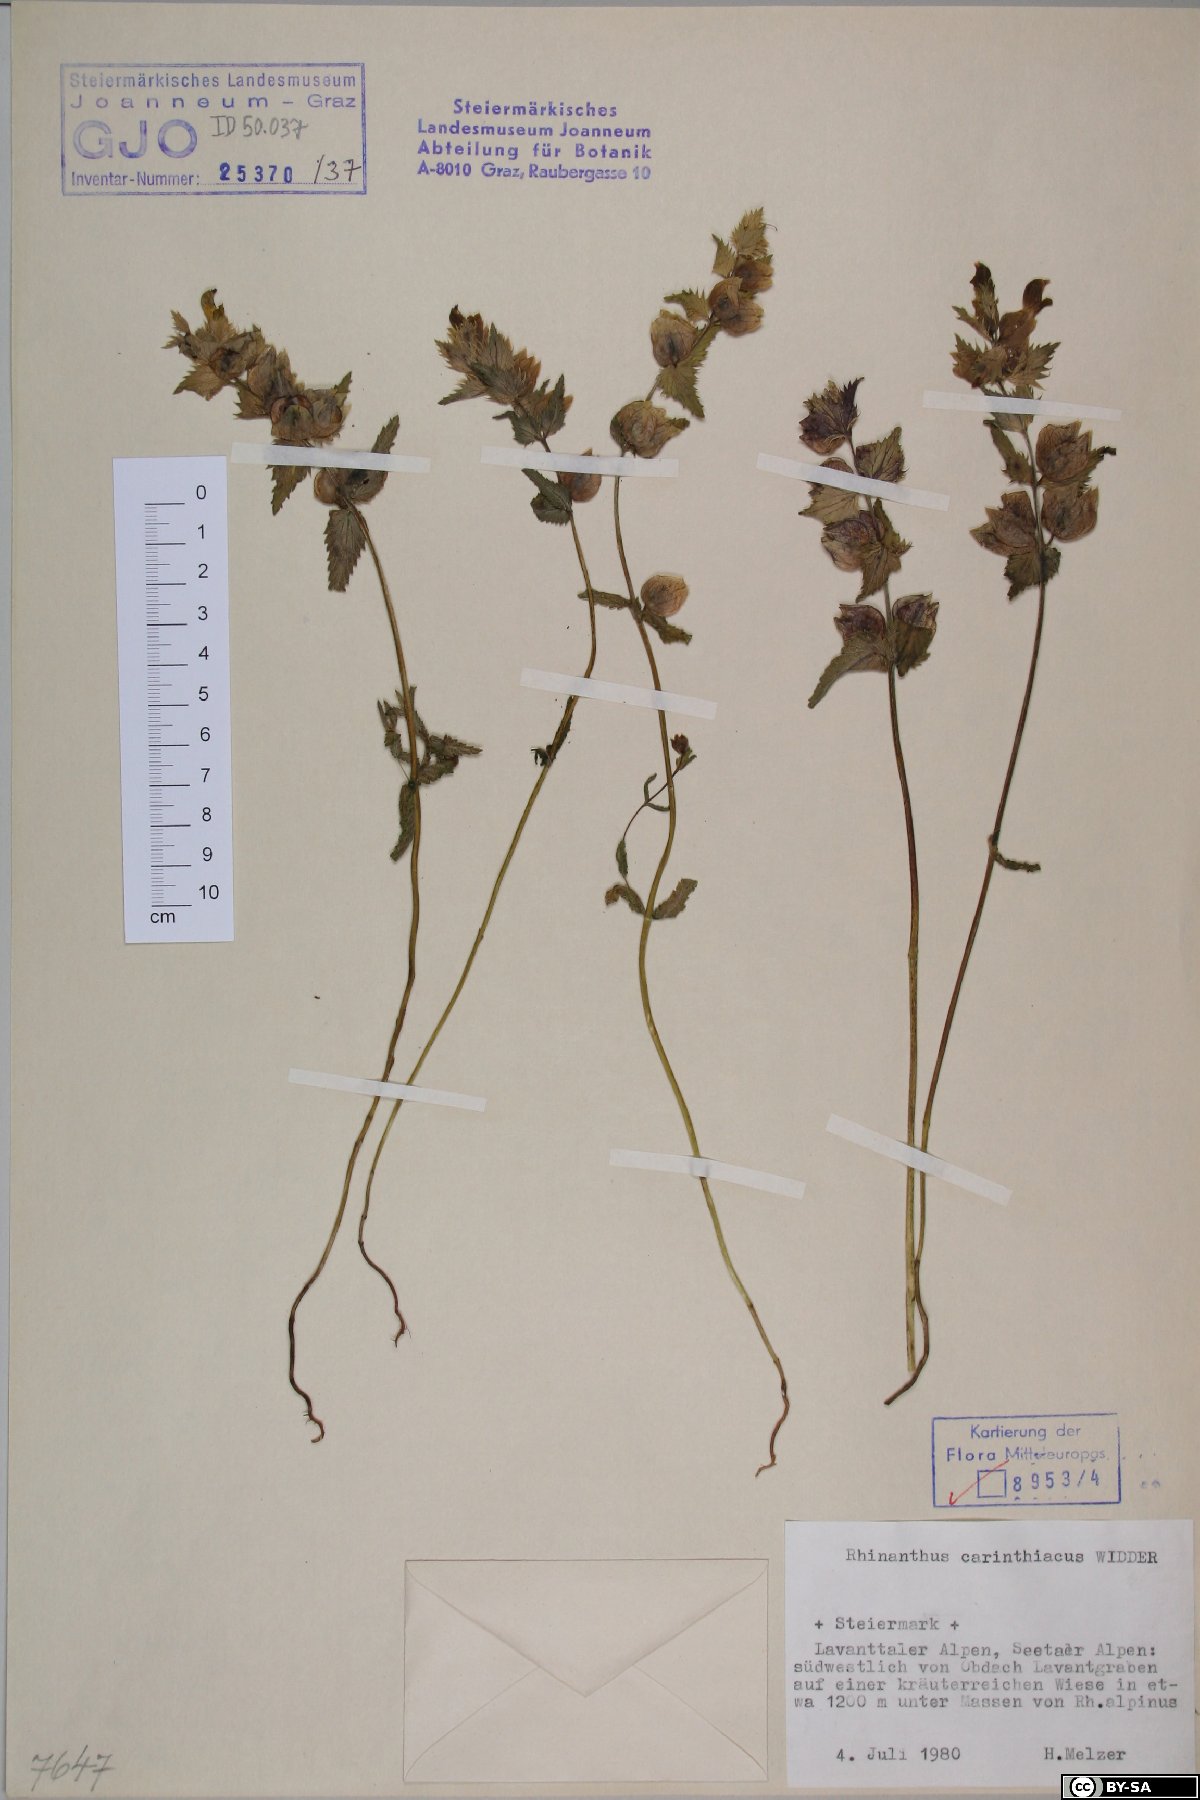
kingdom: Plantae
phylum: Tracheophyta
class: Magnoliopsida
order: Lamiales
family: Orobanchaceae
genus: Rhinanthus
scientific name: Rhinanthus carinthiacus
